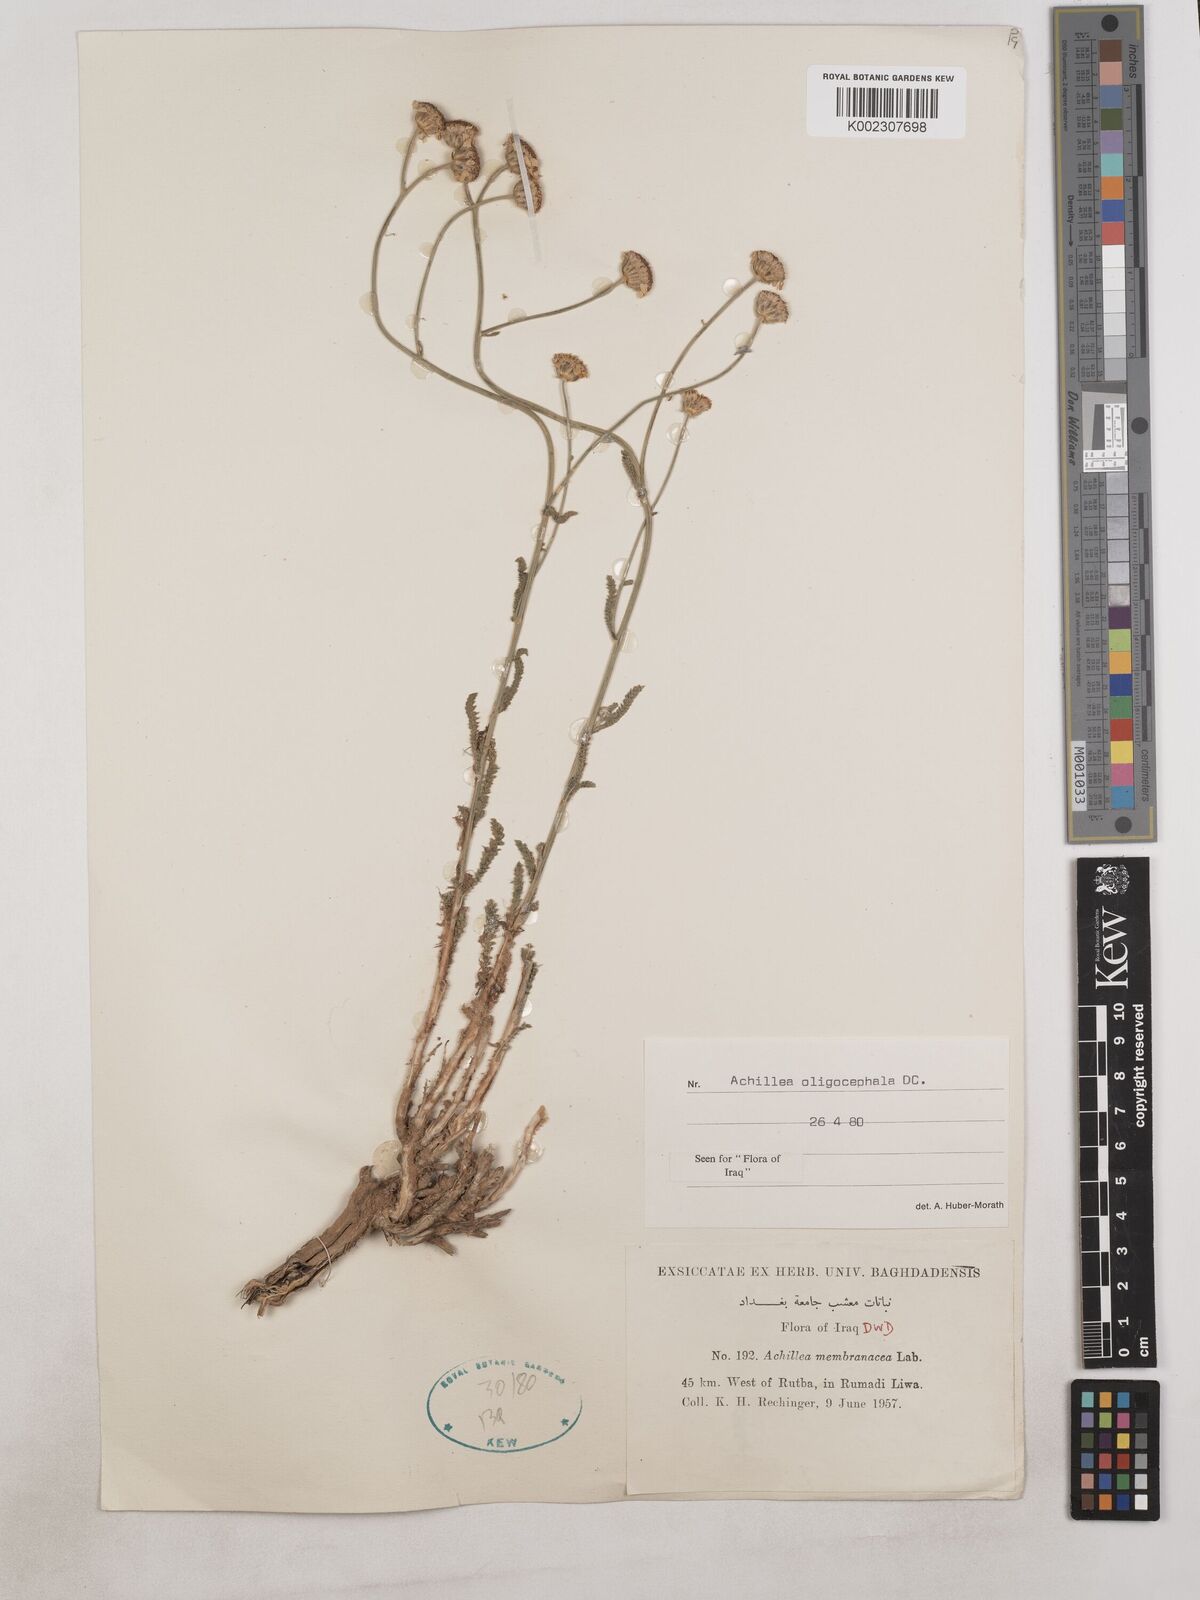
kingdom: Plantae
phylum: Tracheophyta
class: Magnoliopsida
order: Asterales
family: Asteraceae
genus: Achillea
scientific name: Achillea oligocephala
